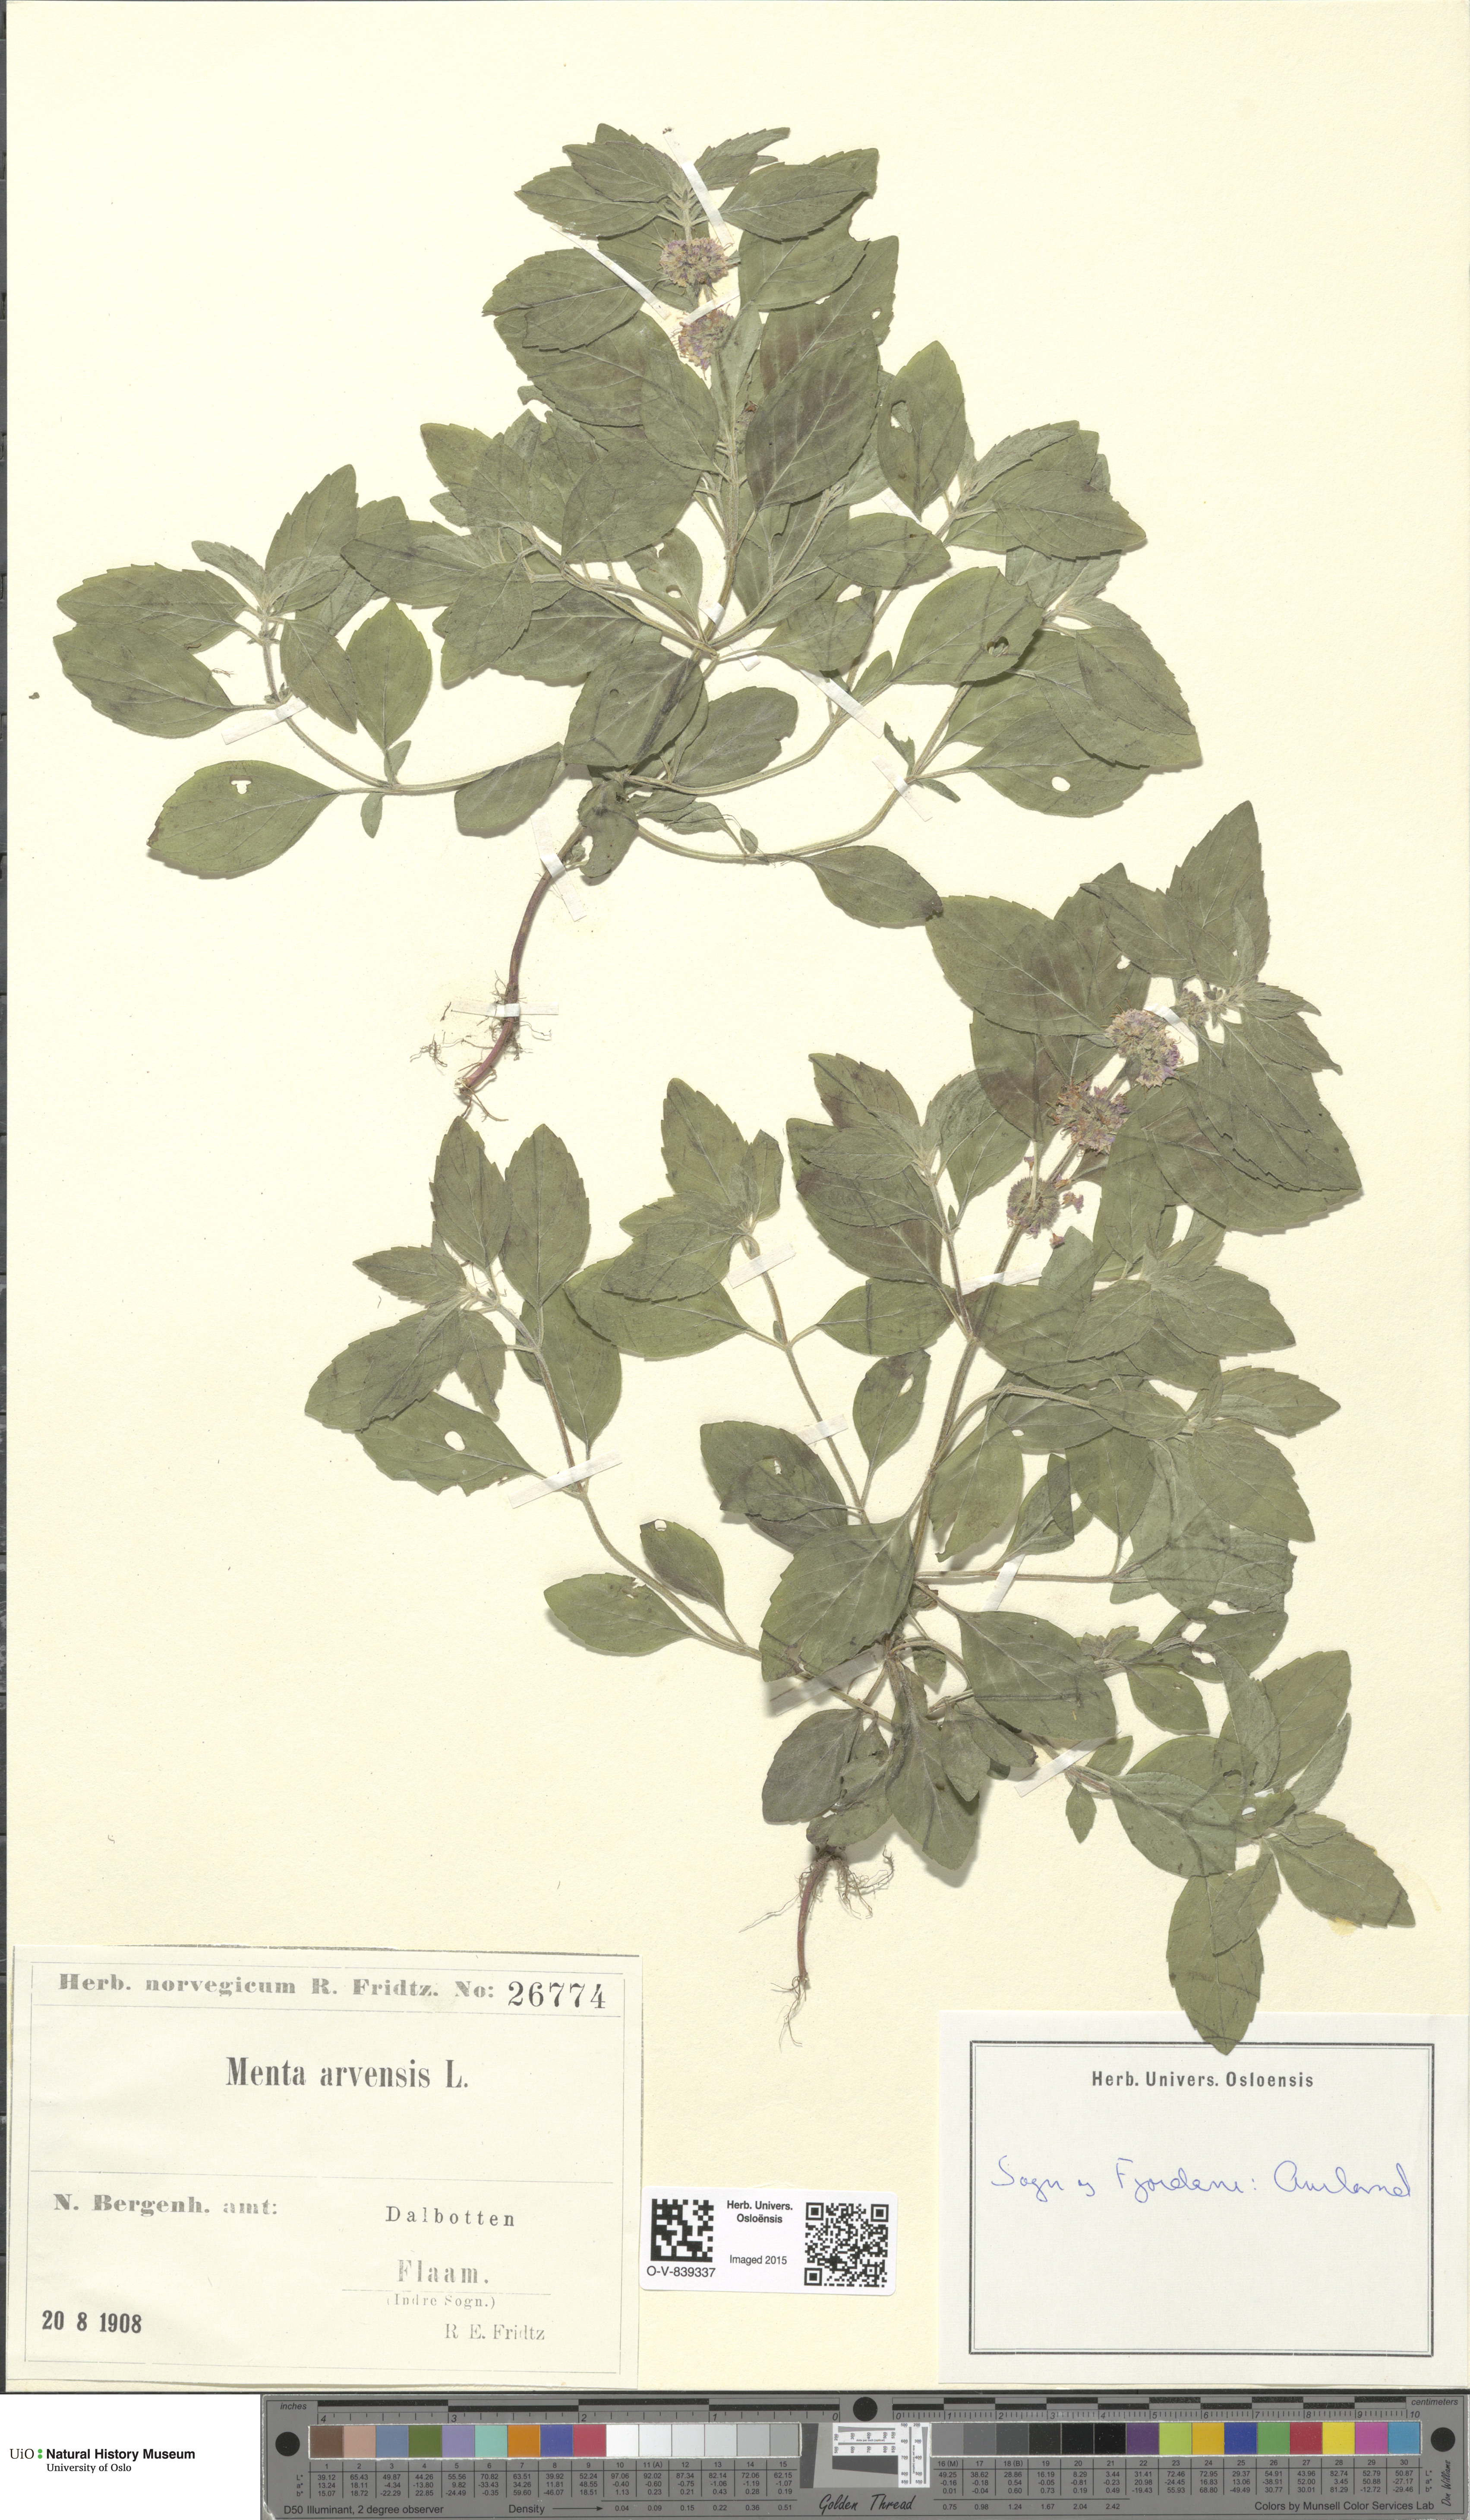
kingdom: Plantae
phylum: Tracheophyta
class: Magnoliopsida
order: Lamiales
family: Lamiaceae
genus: Mentha
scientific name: Mentha arvensis
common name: Corn mint
